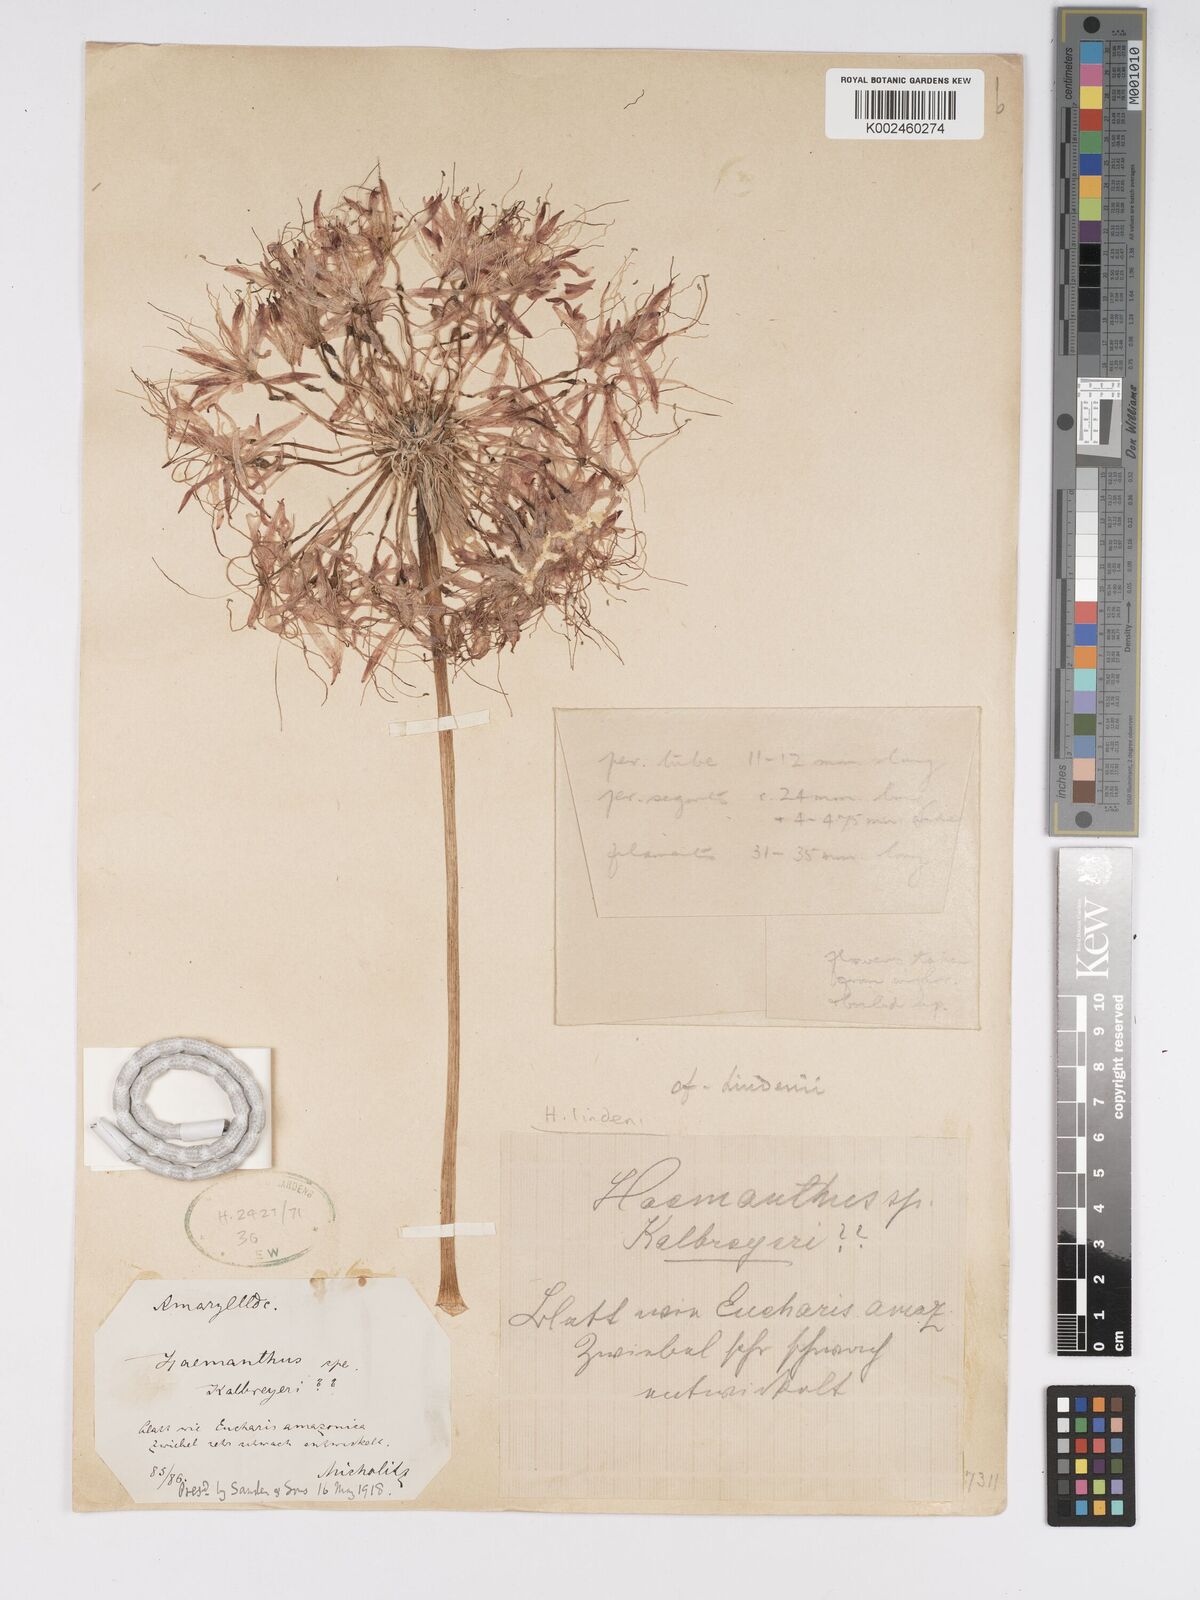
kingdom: Plantae
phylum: Tracheophyta
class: Liliopsida
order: Asparagales
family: Amaryllidaceae
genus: Scadoxus
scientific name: Scadoxus cinnabarinus
